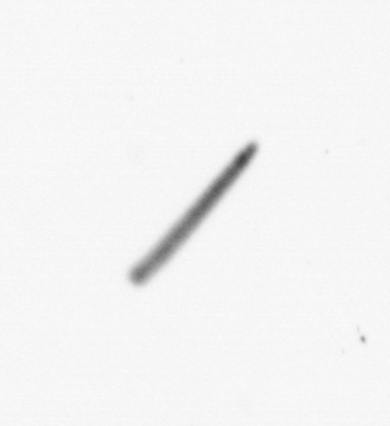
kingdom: Chromista
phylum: Ochrophyta
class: Bacillariophyceae
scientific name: Bacillariophyceae
